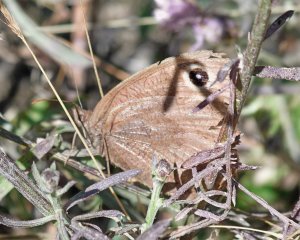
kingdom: Animalia
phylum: Arthropoda
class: Insecta
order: Lepidoptera
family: Nymphalidae
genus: Cercyonis
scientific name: Cercyonis pegala
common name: Common Wood-Nymph
